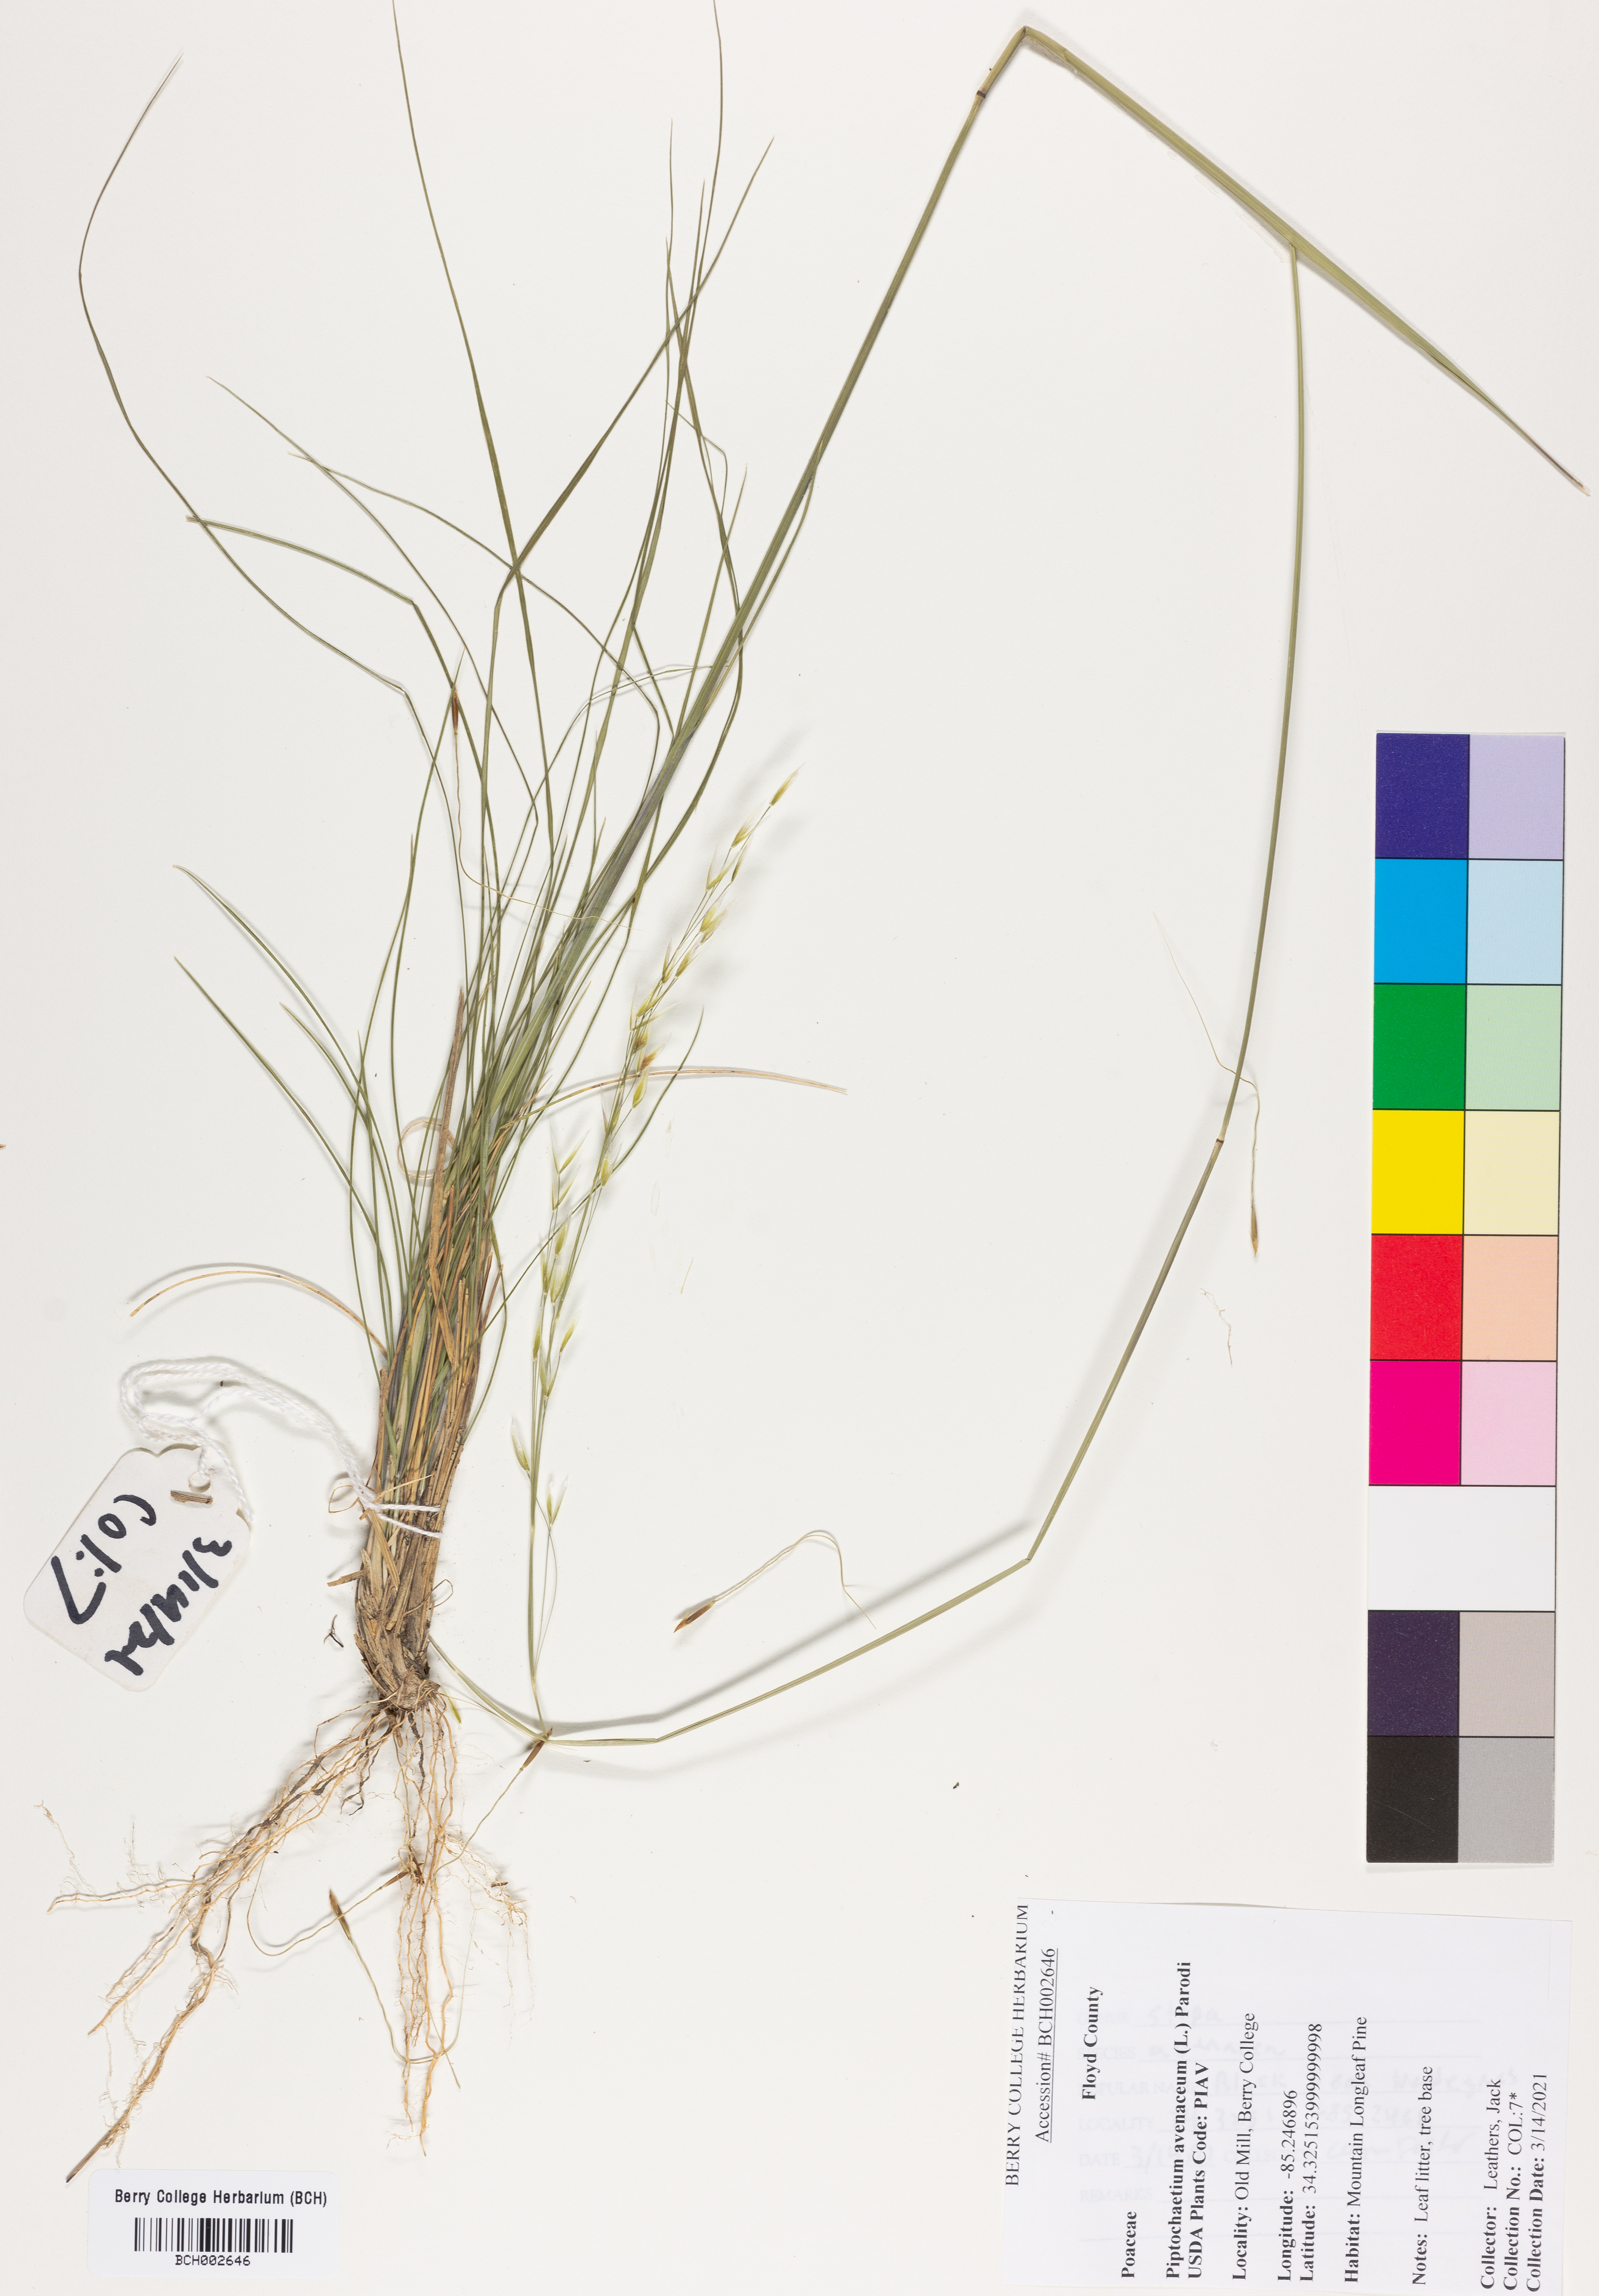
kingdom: Plantae
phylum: Tracheophyta
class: Liliopsida
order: Poales
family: Poaceae
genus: Piptochaetium
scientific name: Piptochaetium avenaceum
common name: Black bunchgrass
